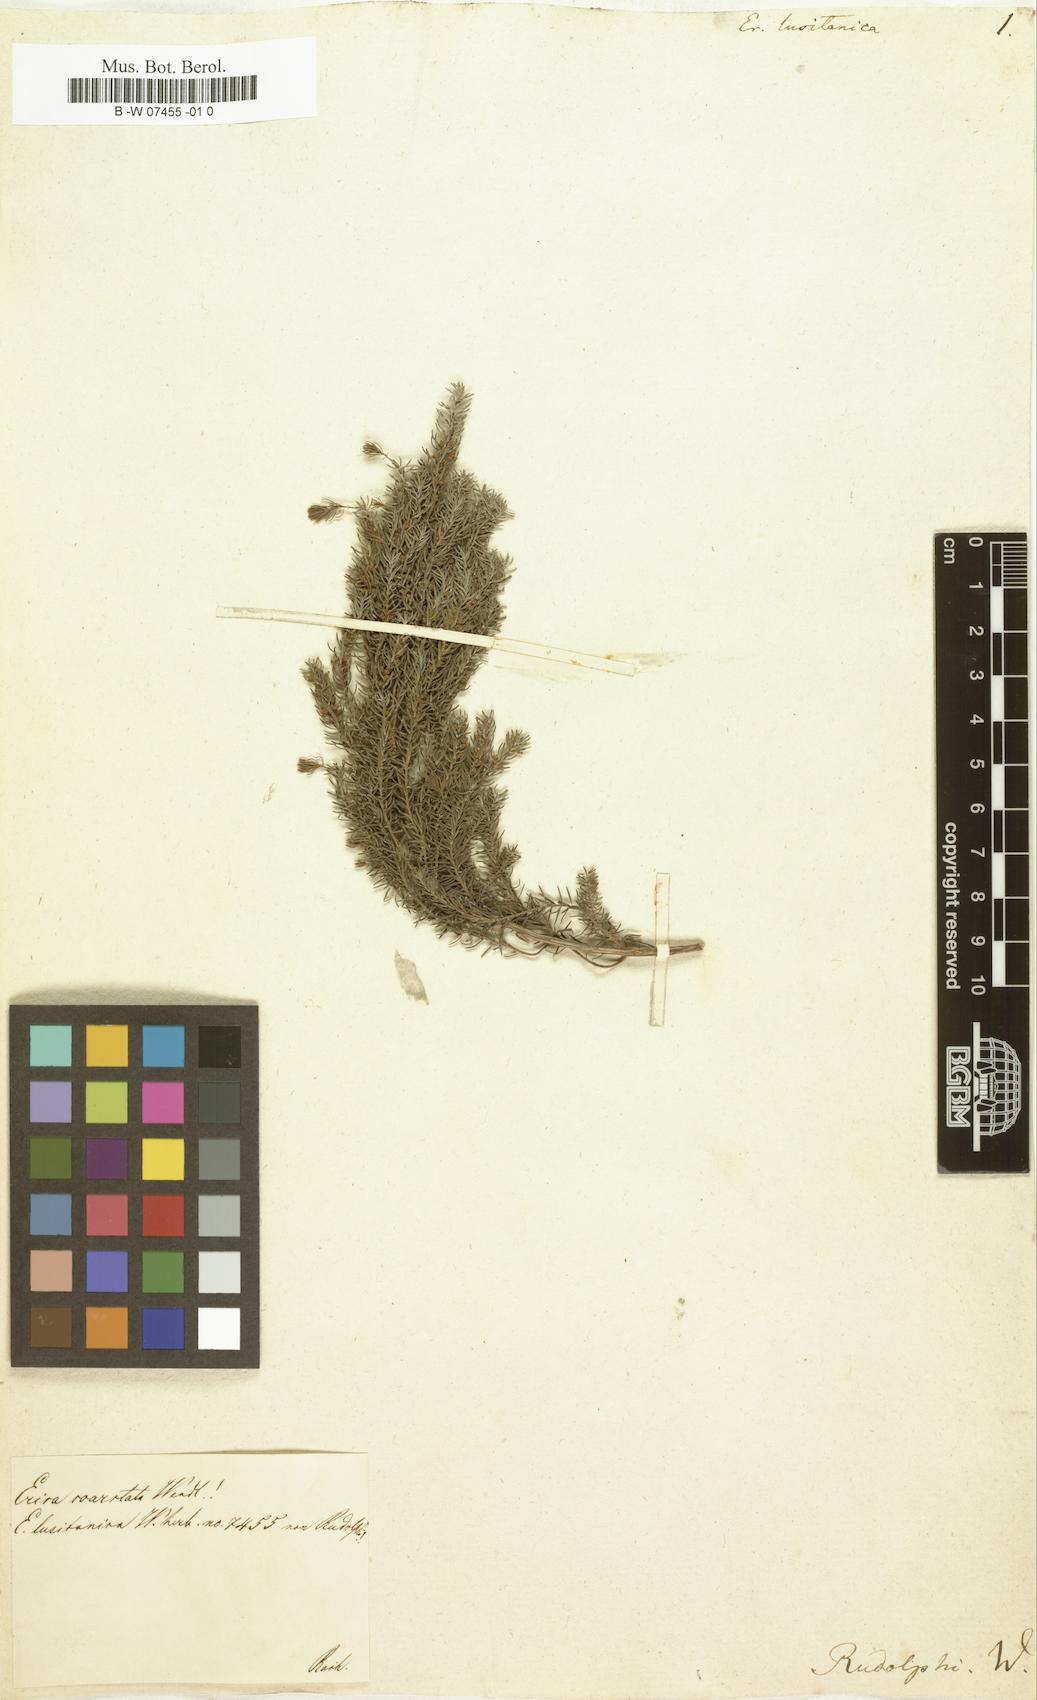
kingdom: Plantae
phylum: Tracheophyta
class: Magnoliopsida
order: Ericales
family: Ericaceae
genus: Erica
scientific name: Erica lusitanica
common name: Spanish heath
